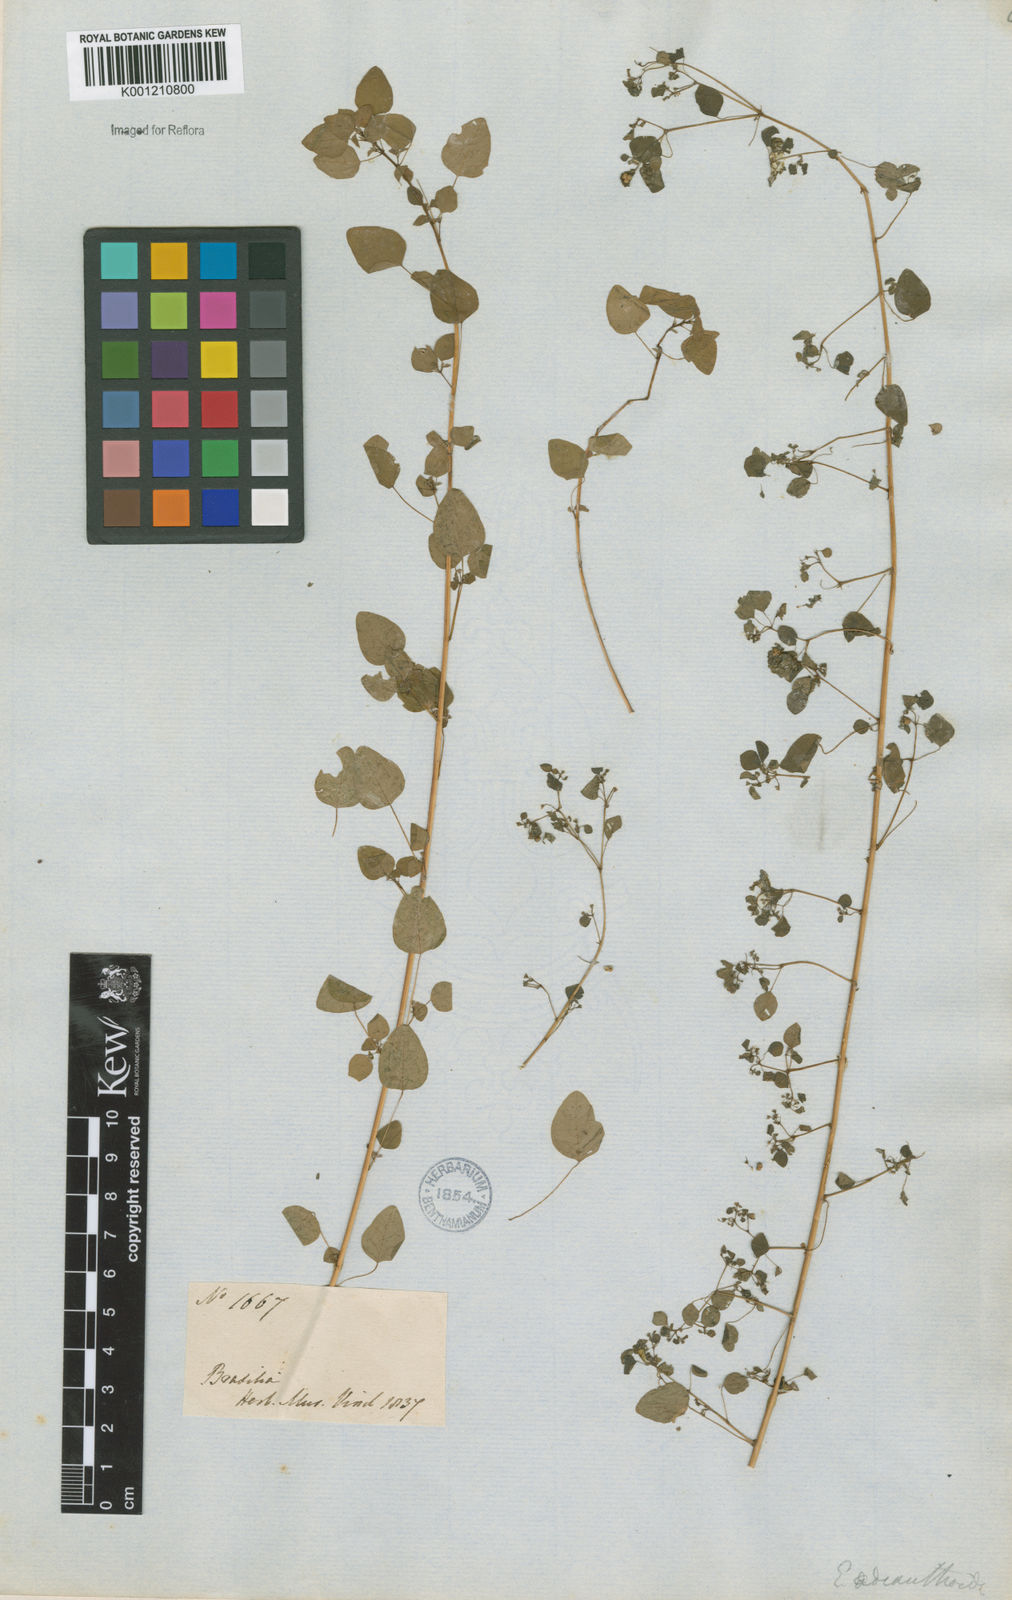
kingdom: Plantae
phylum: Tracheophyta
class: Magnoliopsida
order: Malpighiales
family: Euphorbiaceae
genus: Euphorbia
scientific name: Euphorbia sciadophila
